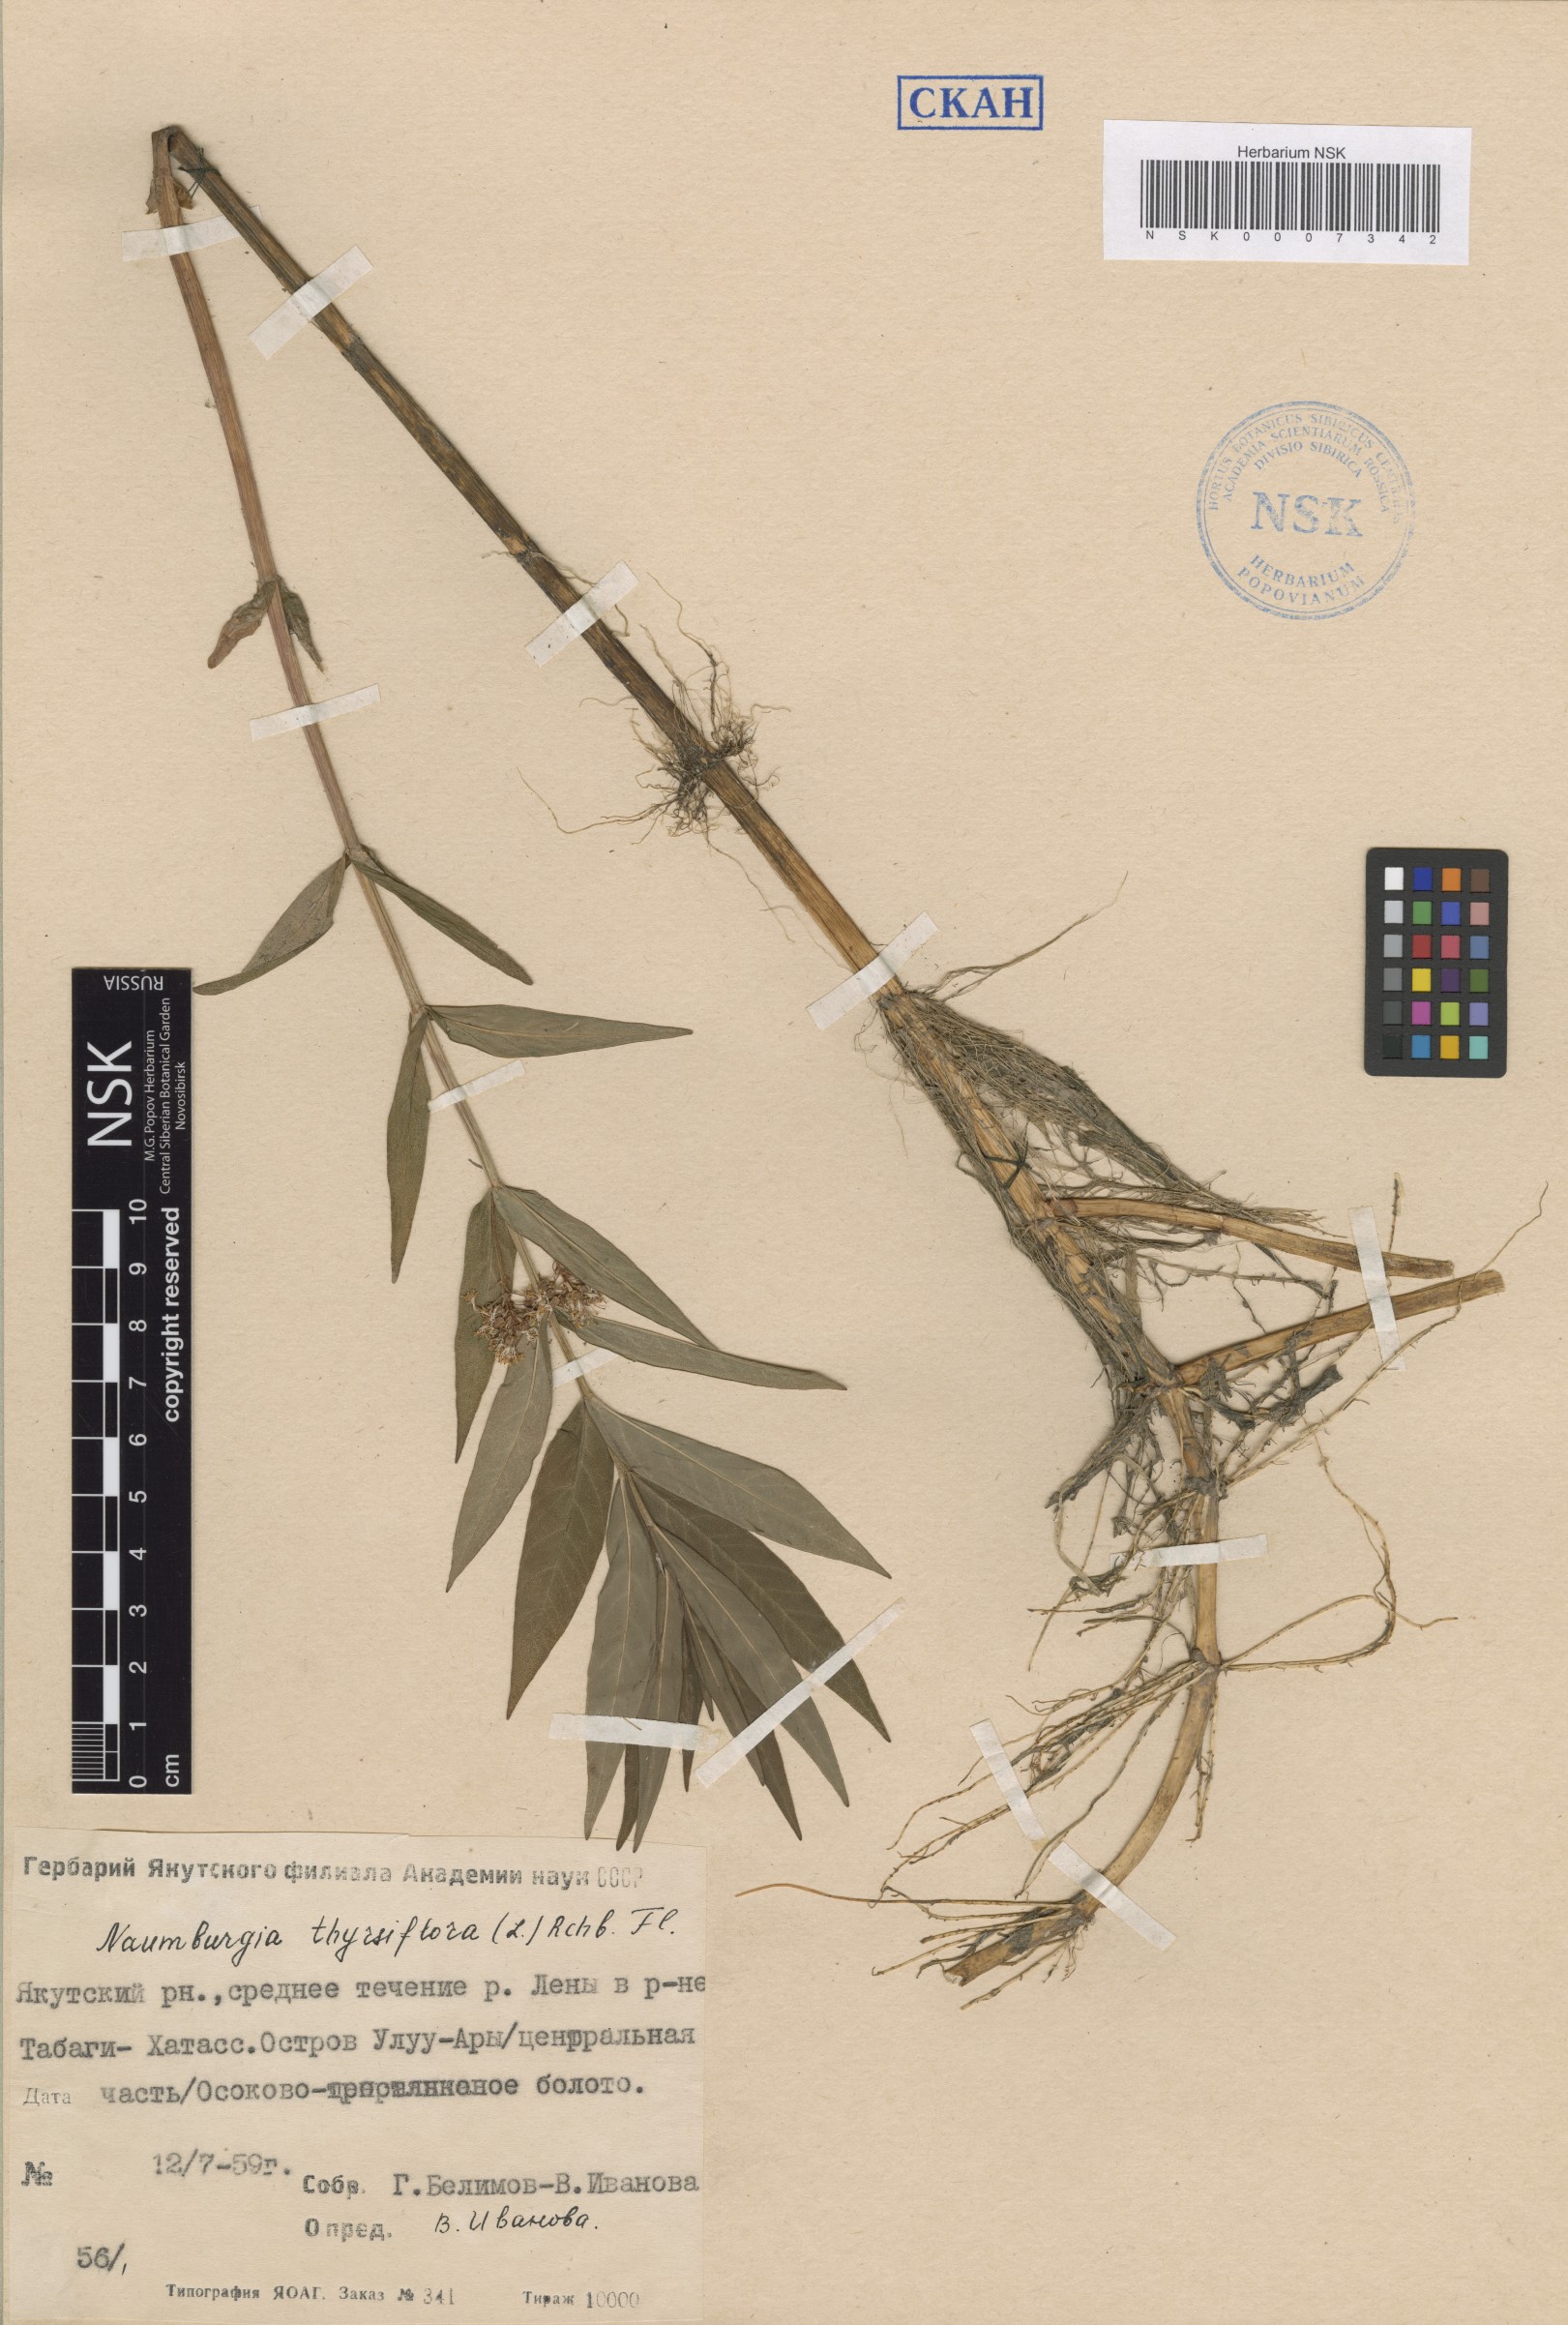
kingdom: Plantae
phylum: Tracheophyta
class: Magnoliopsida
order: Ericales
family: Primulaceae
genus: Lysimachia
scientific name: Lysimachia thyrsiflora
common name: Tufted loosestrife
